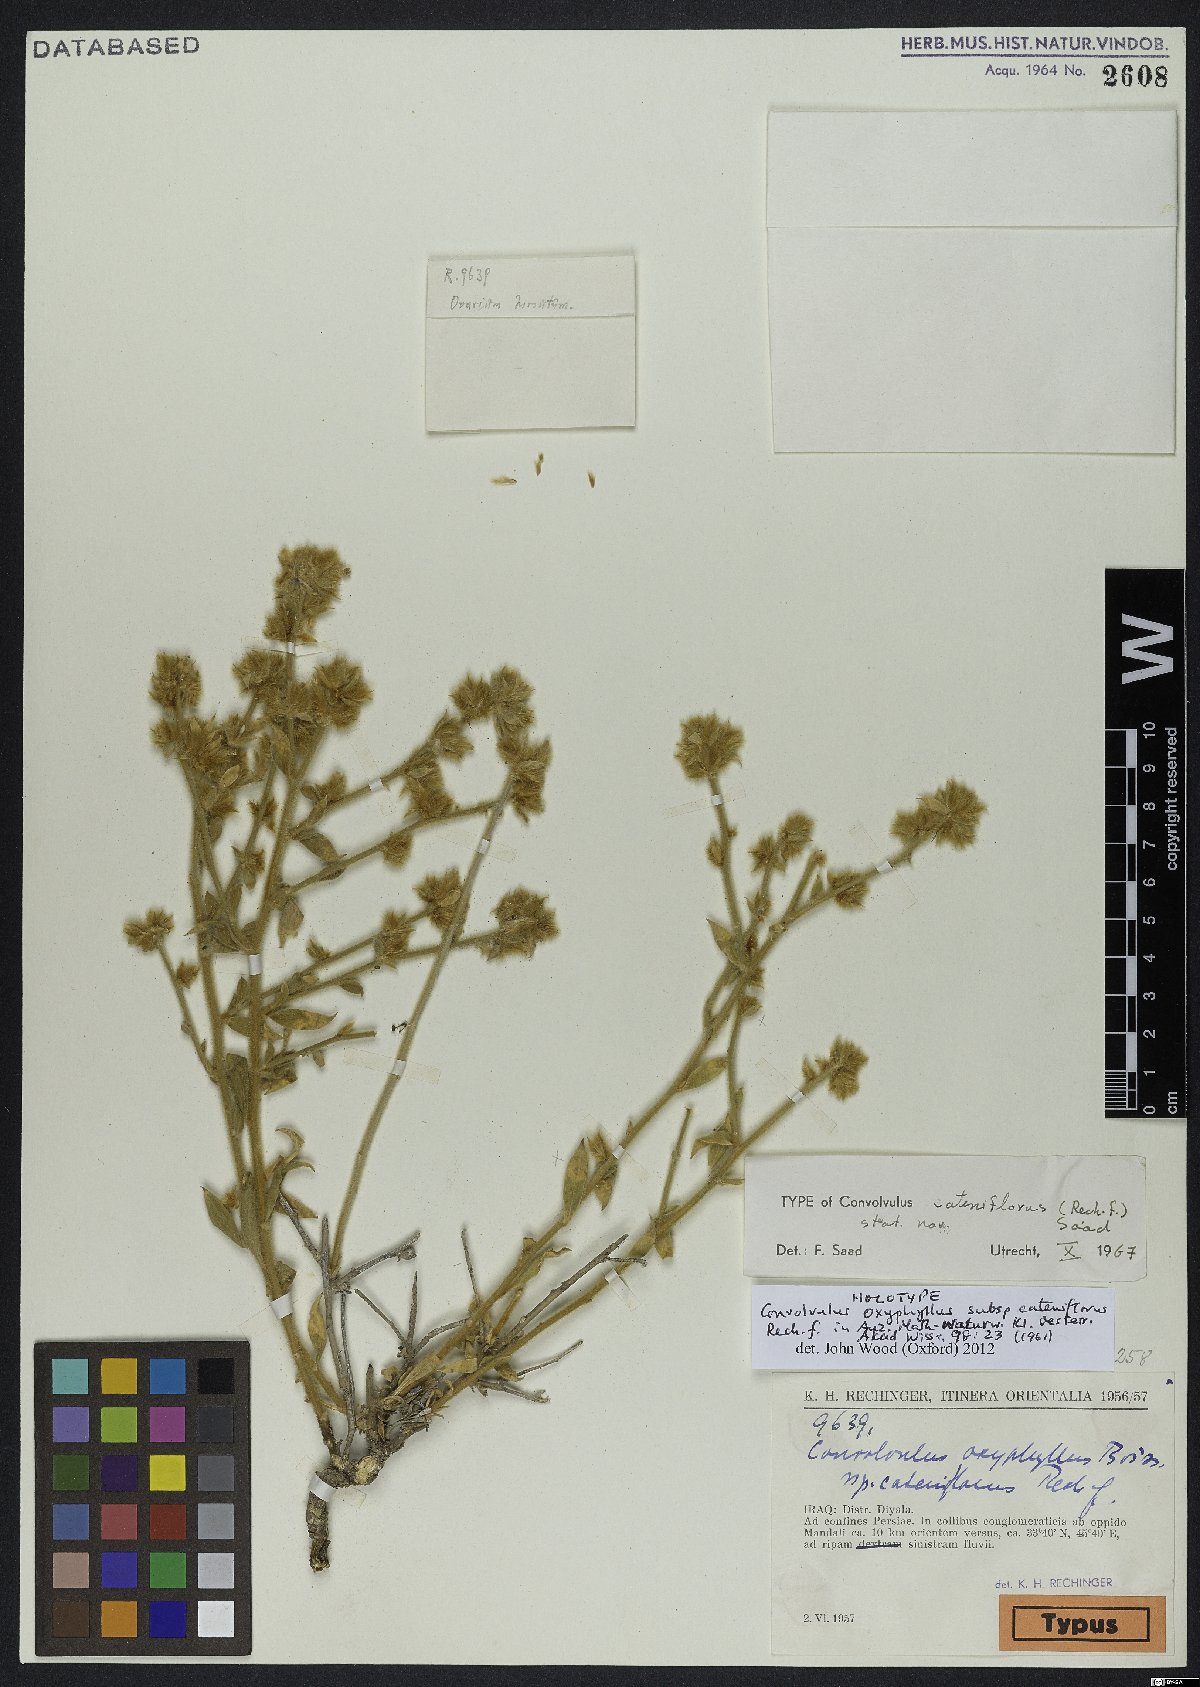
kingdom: Plantae
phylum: Tracheophyta
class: Magnoliopsida
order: Solanales
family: Convolvulaceae
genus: Convolvulus
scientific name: Convolvulus oxyphyllus
